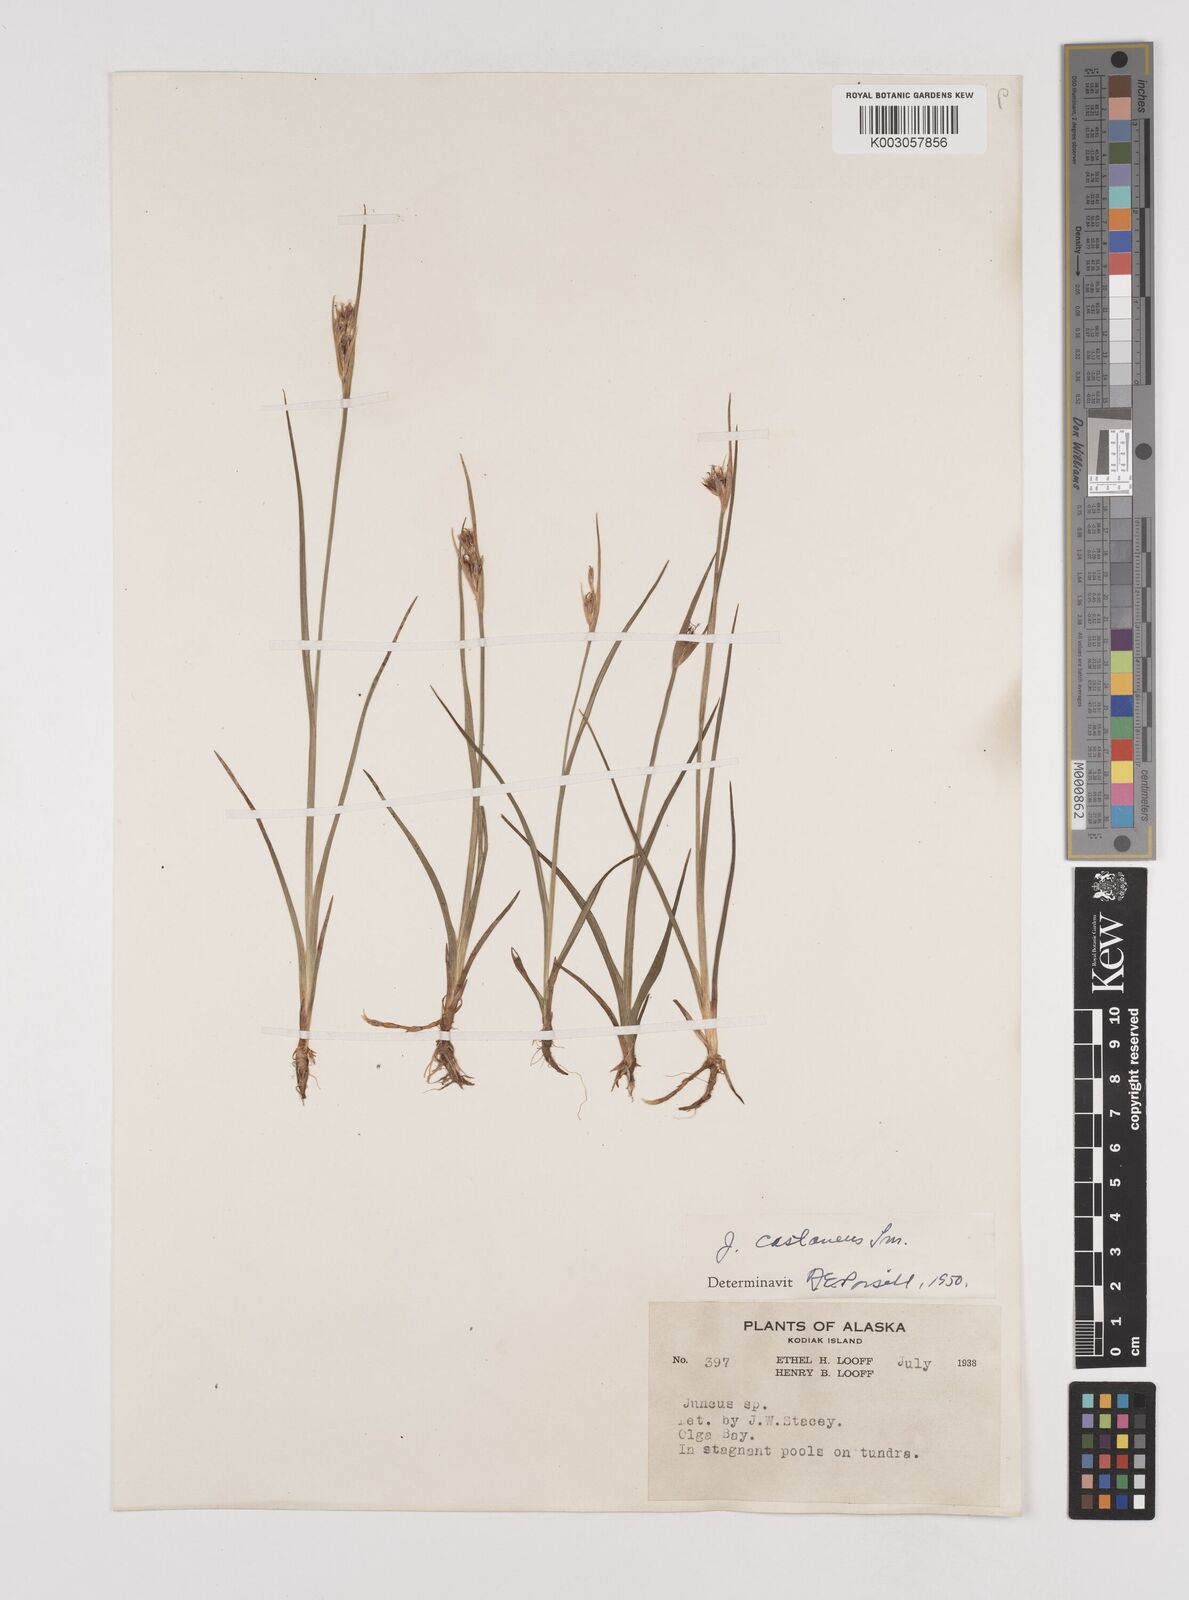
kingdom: Plantae
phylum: Tracheophyta
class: Liliopsida
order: Poales
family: Juncaceae
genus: Juncus
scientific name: Juncus castaneus
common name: Chestnut rush
